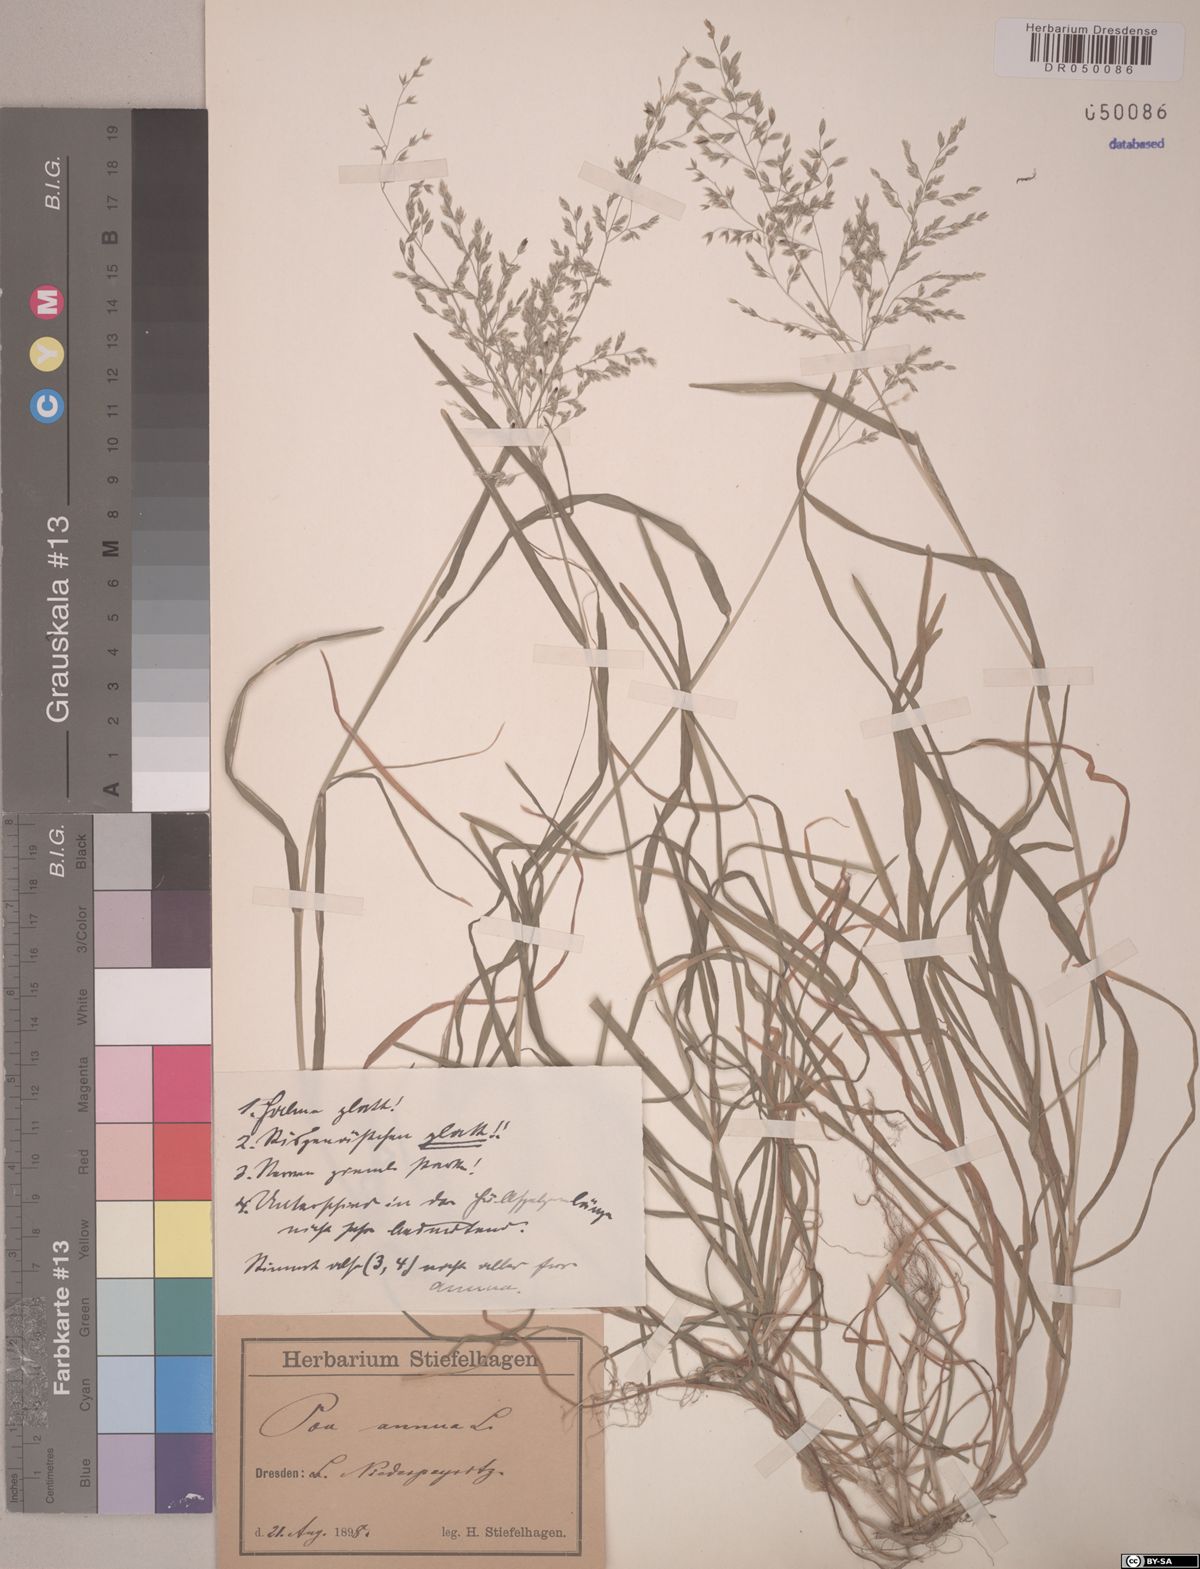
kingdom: Plantae
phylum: Tracheophyta
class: Liliopsida
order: Poales
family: Poaceae
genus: Poa
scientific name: Poa annua
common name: Annual bluegrass
